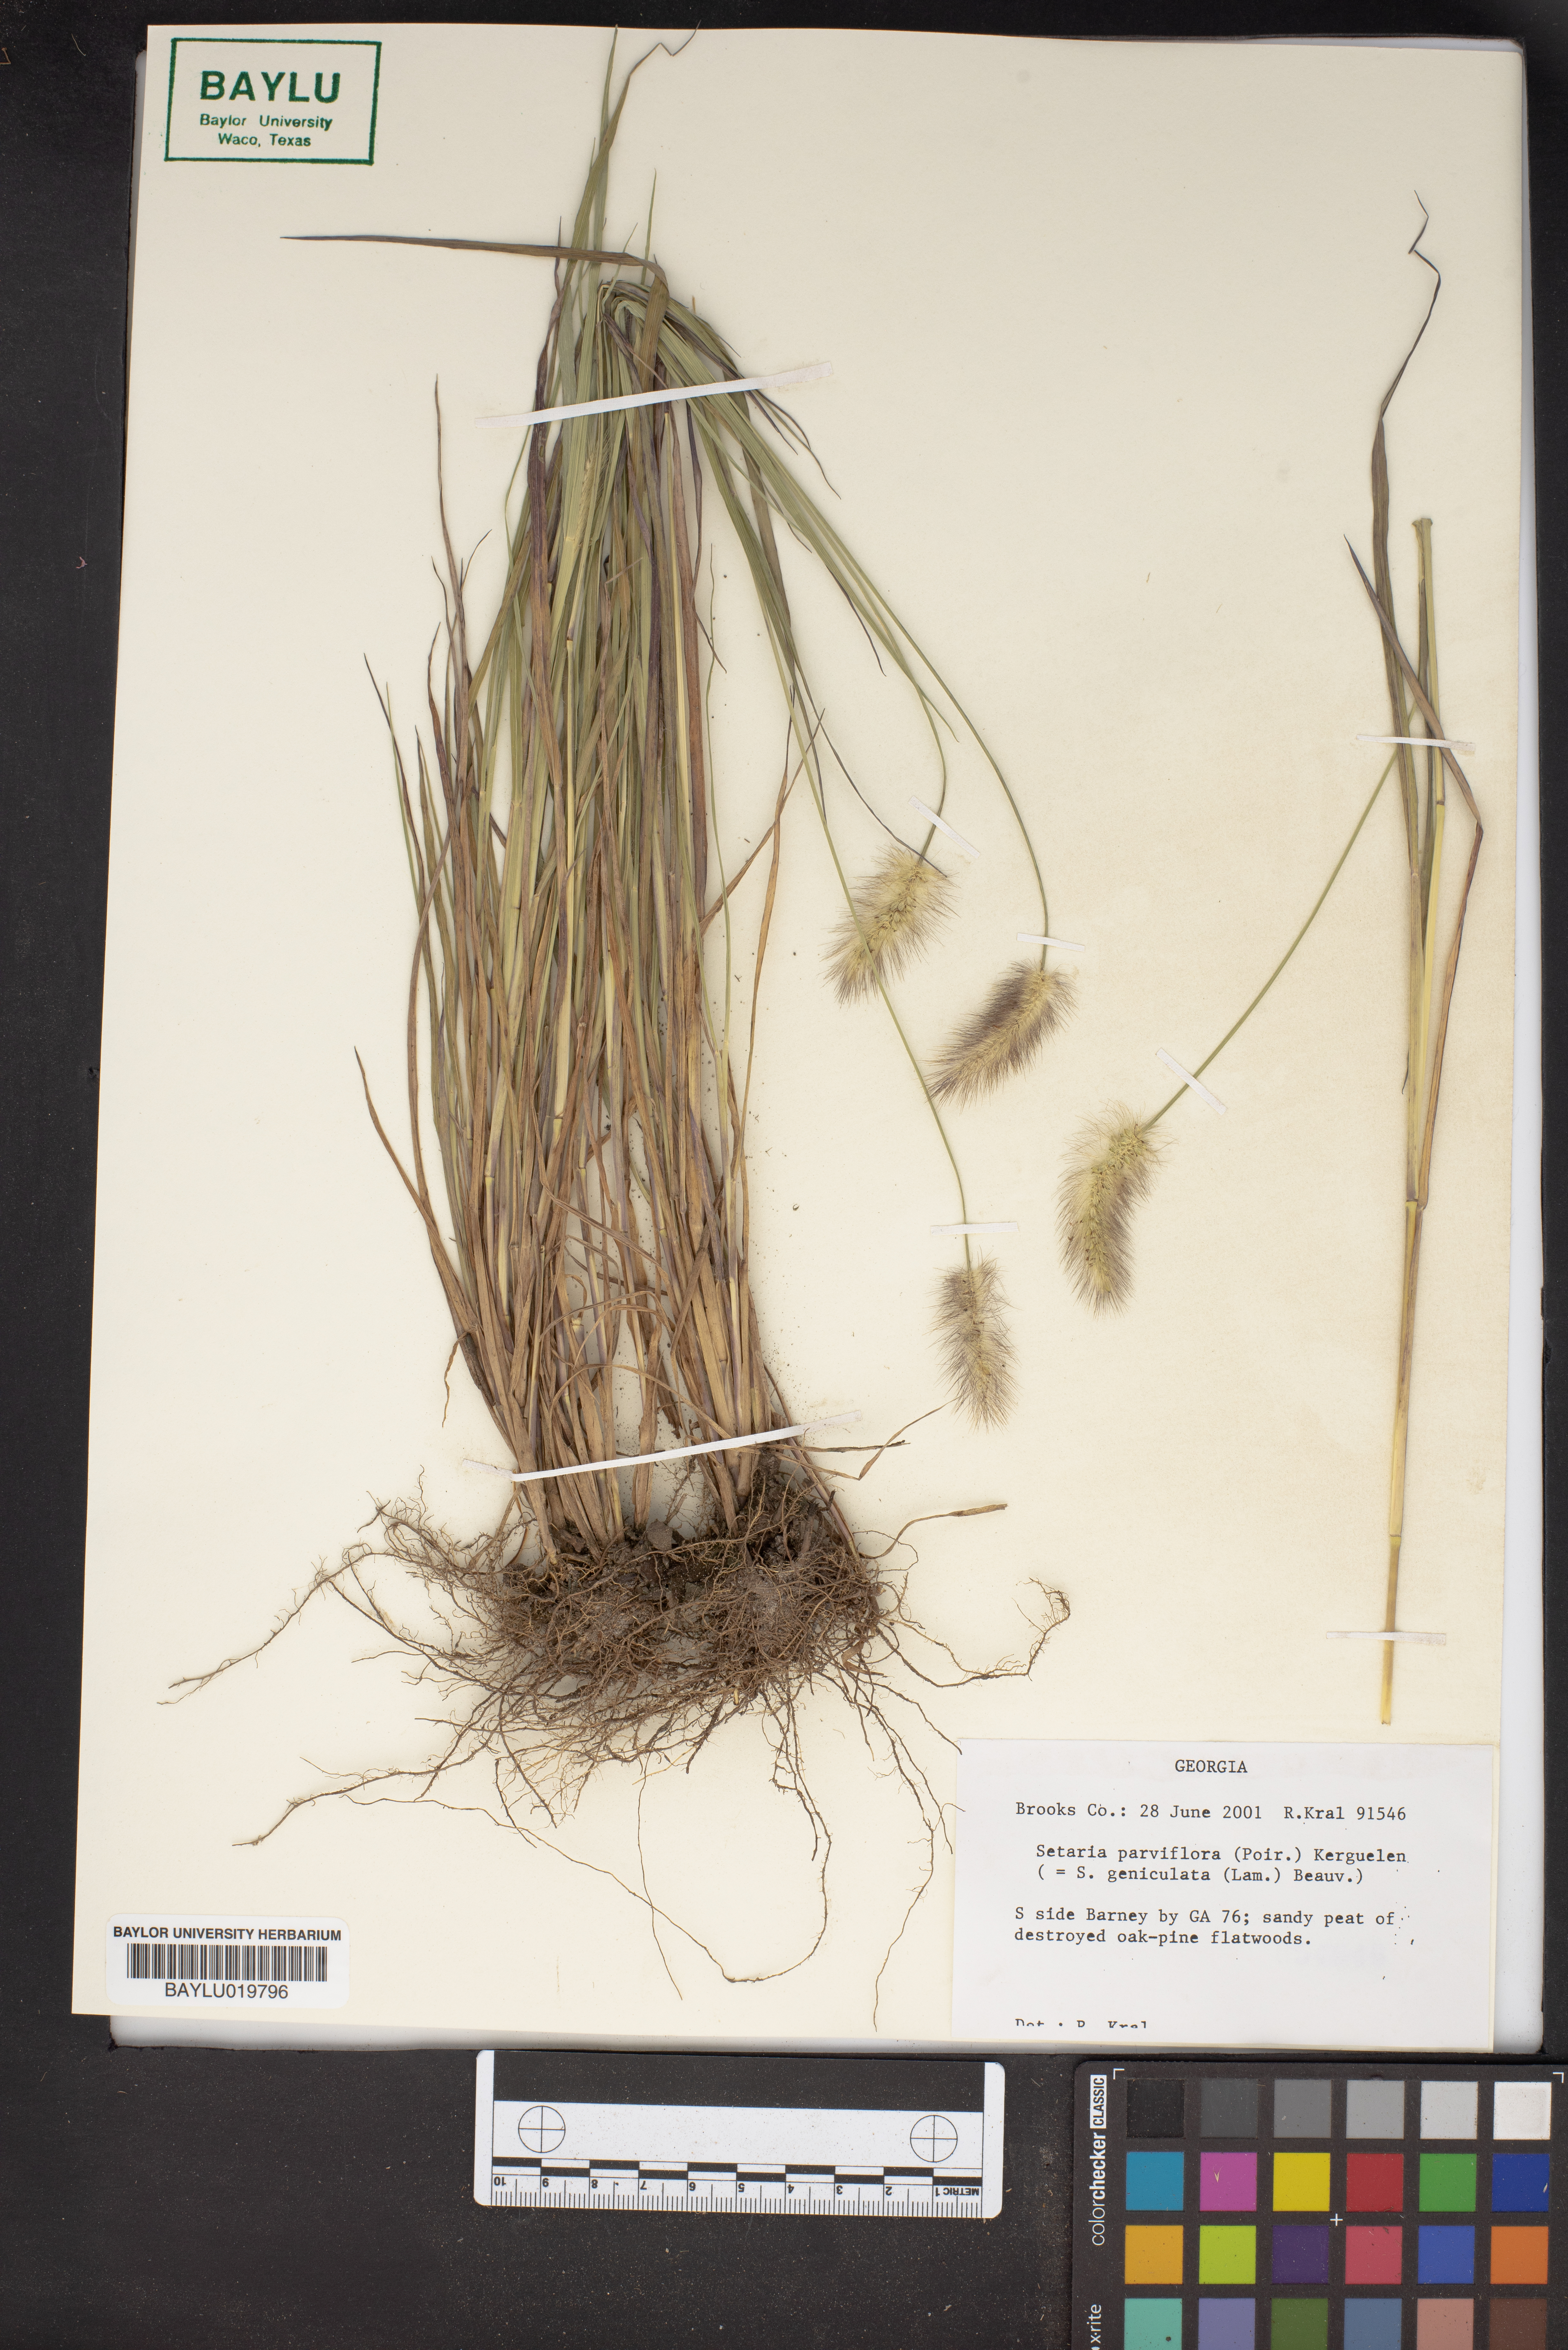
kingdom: Plantae
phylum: Tracheophyta
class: Liliopsida
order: Poales
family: Poaceae
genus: Setaria
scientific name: Setaria parviflora
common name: Knotroot bristle-grass
